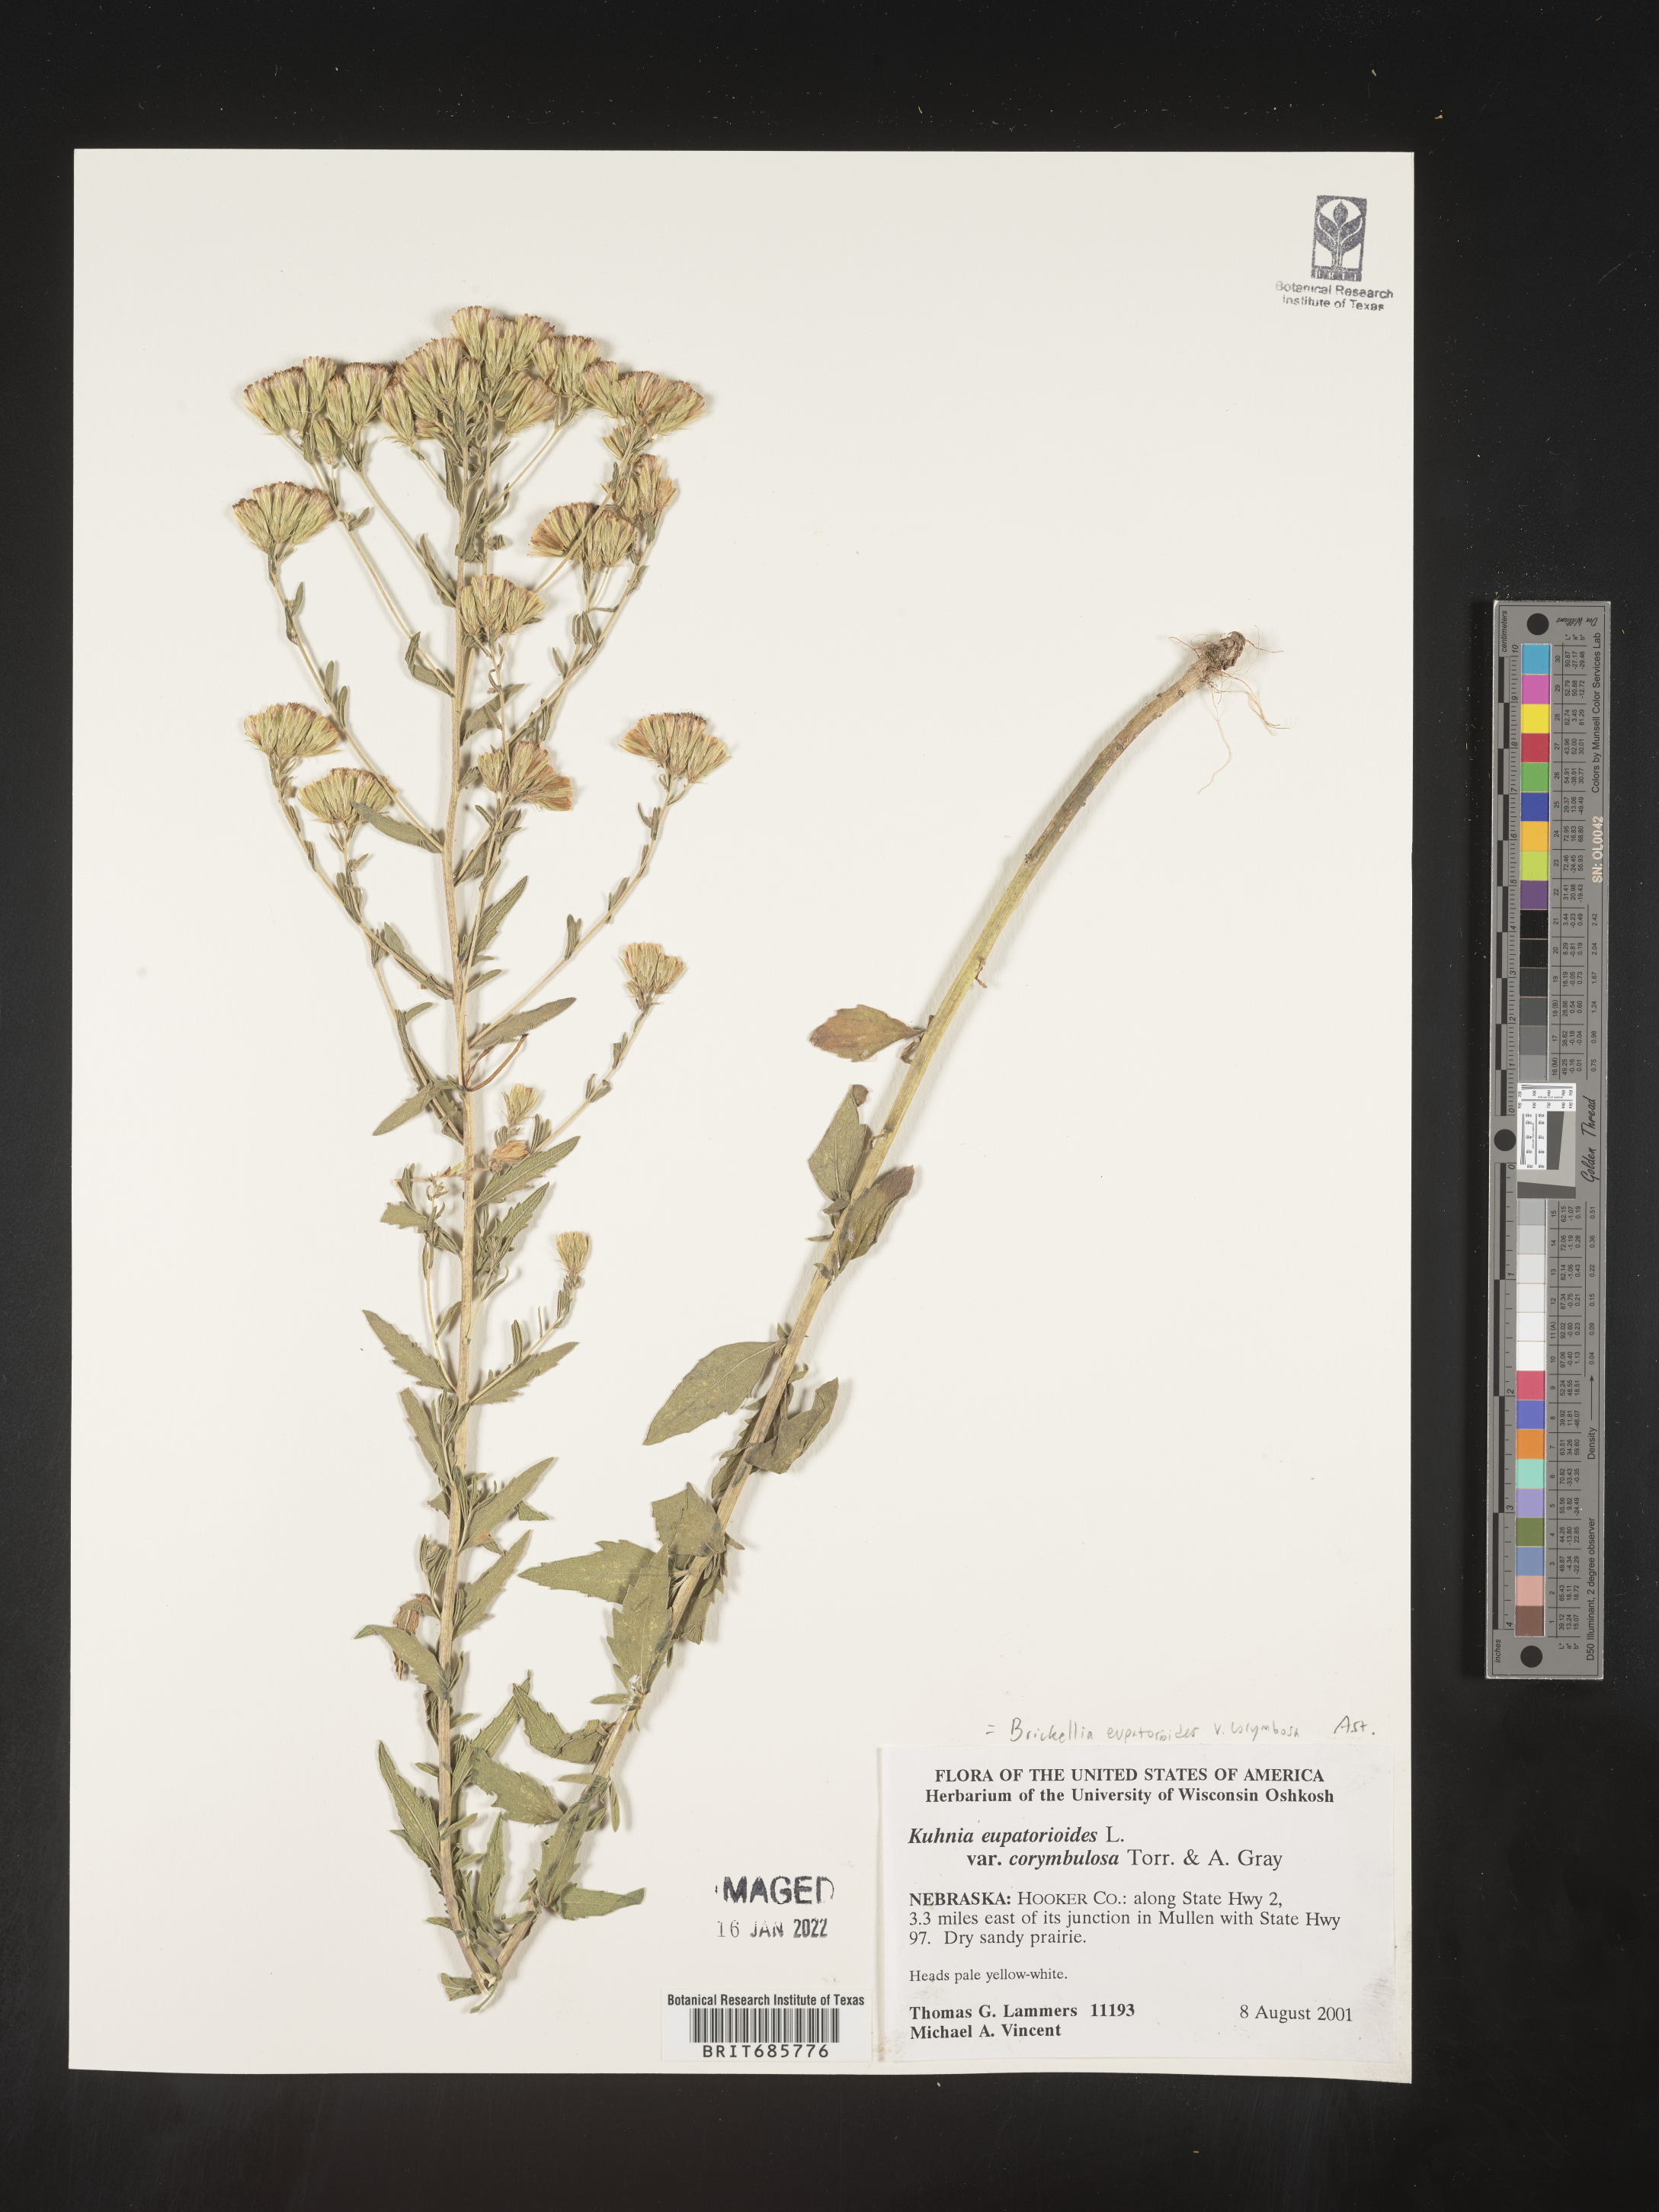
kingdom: Plantae
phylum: Tracheophyta
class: Magnoliopsida
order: Asterales
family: Asteraceae
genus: Brickellia
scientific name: Brickellia eupatorioides
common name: False boneset
